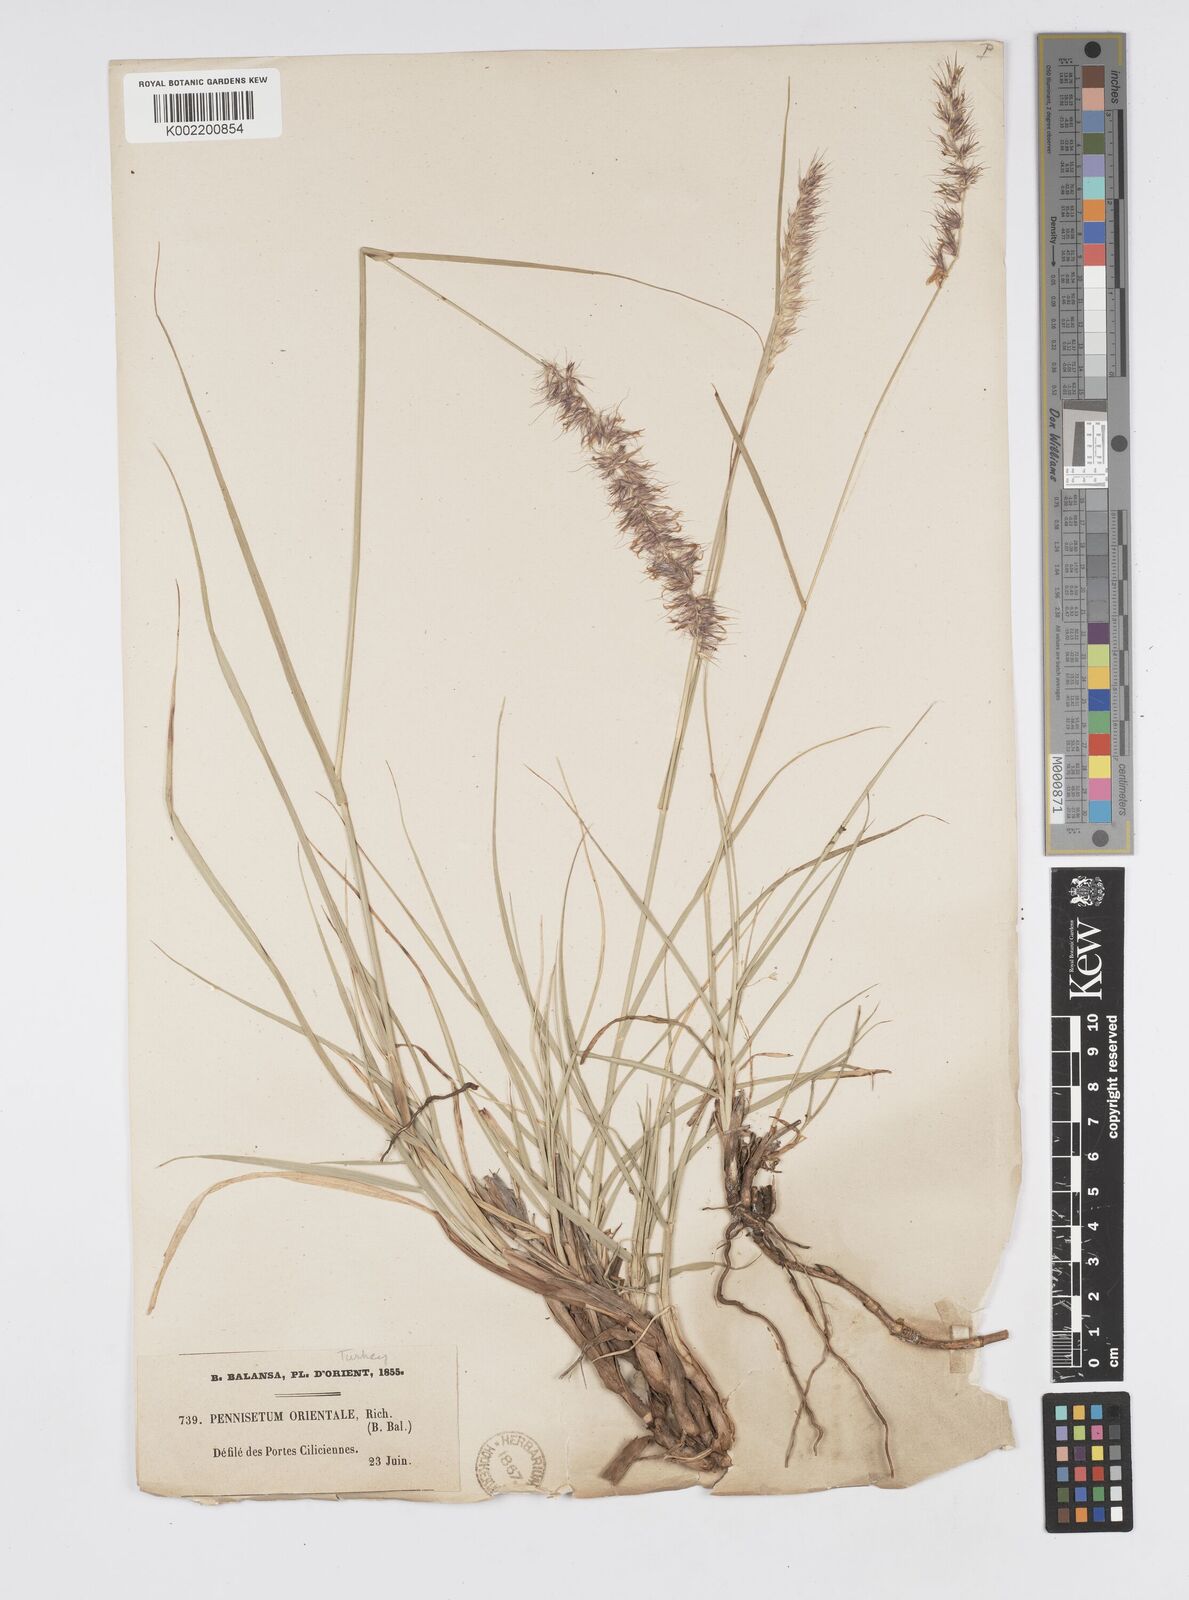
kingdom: Plantae
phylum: Tracheophyta
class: Liliopsida
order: Poales
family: Poaceae
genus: Cenchrus
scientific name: Cenchrus orientalis
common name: Oriental fountain grass
